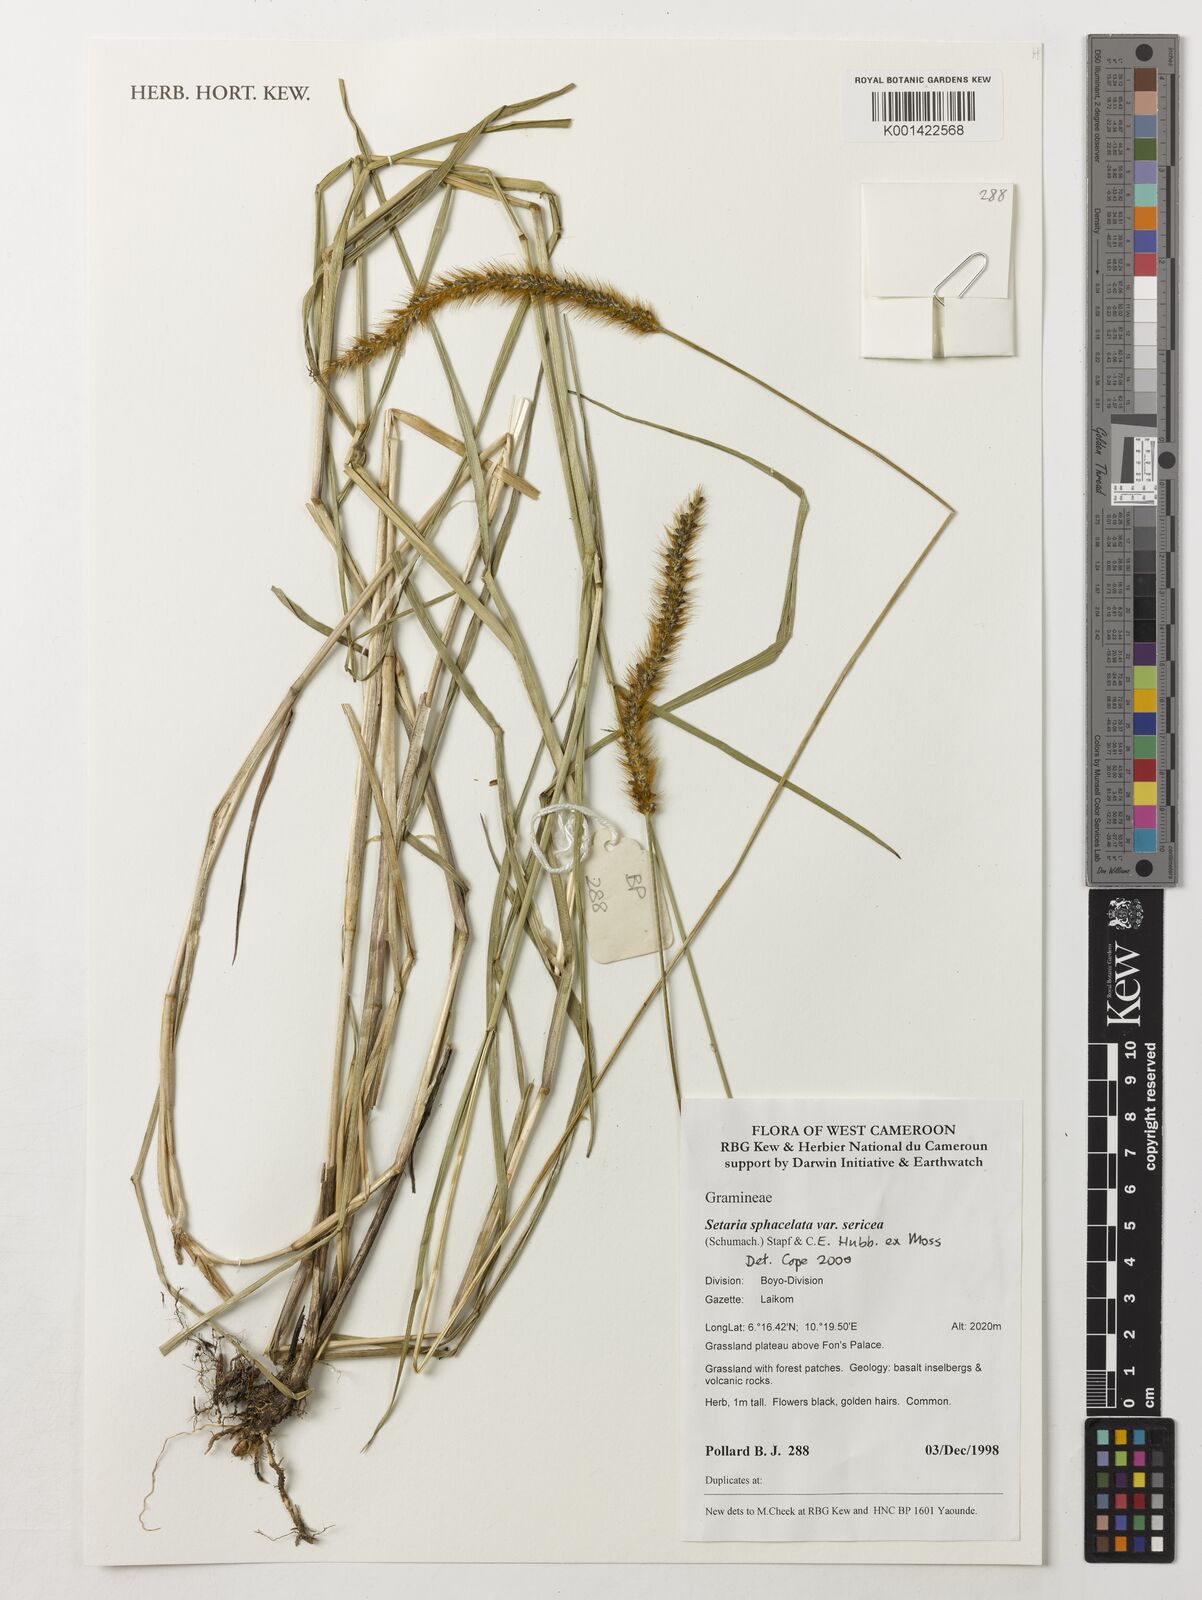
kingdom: Plantae
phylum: Tracheophyta
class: Liliopsida
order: Poales
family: Poaceae
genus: Setaria
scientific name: Setaria sphacelata
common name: African bristlegrass
